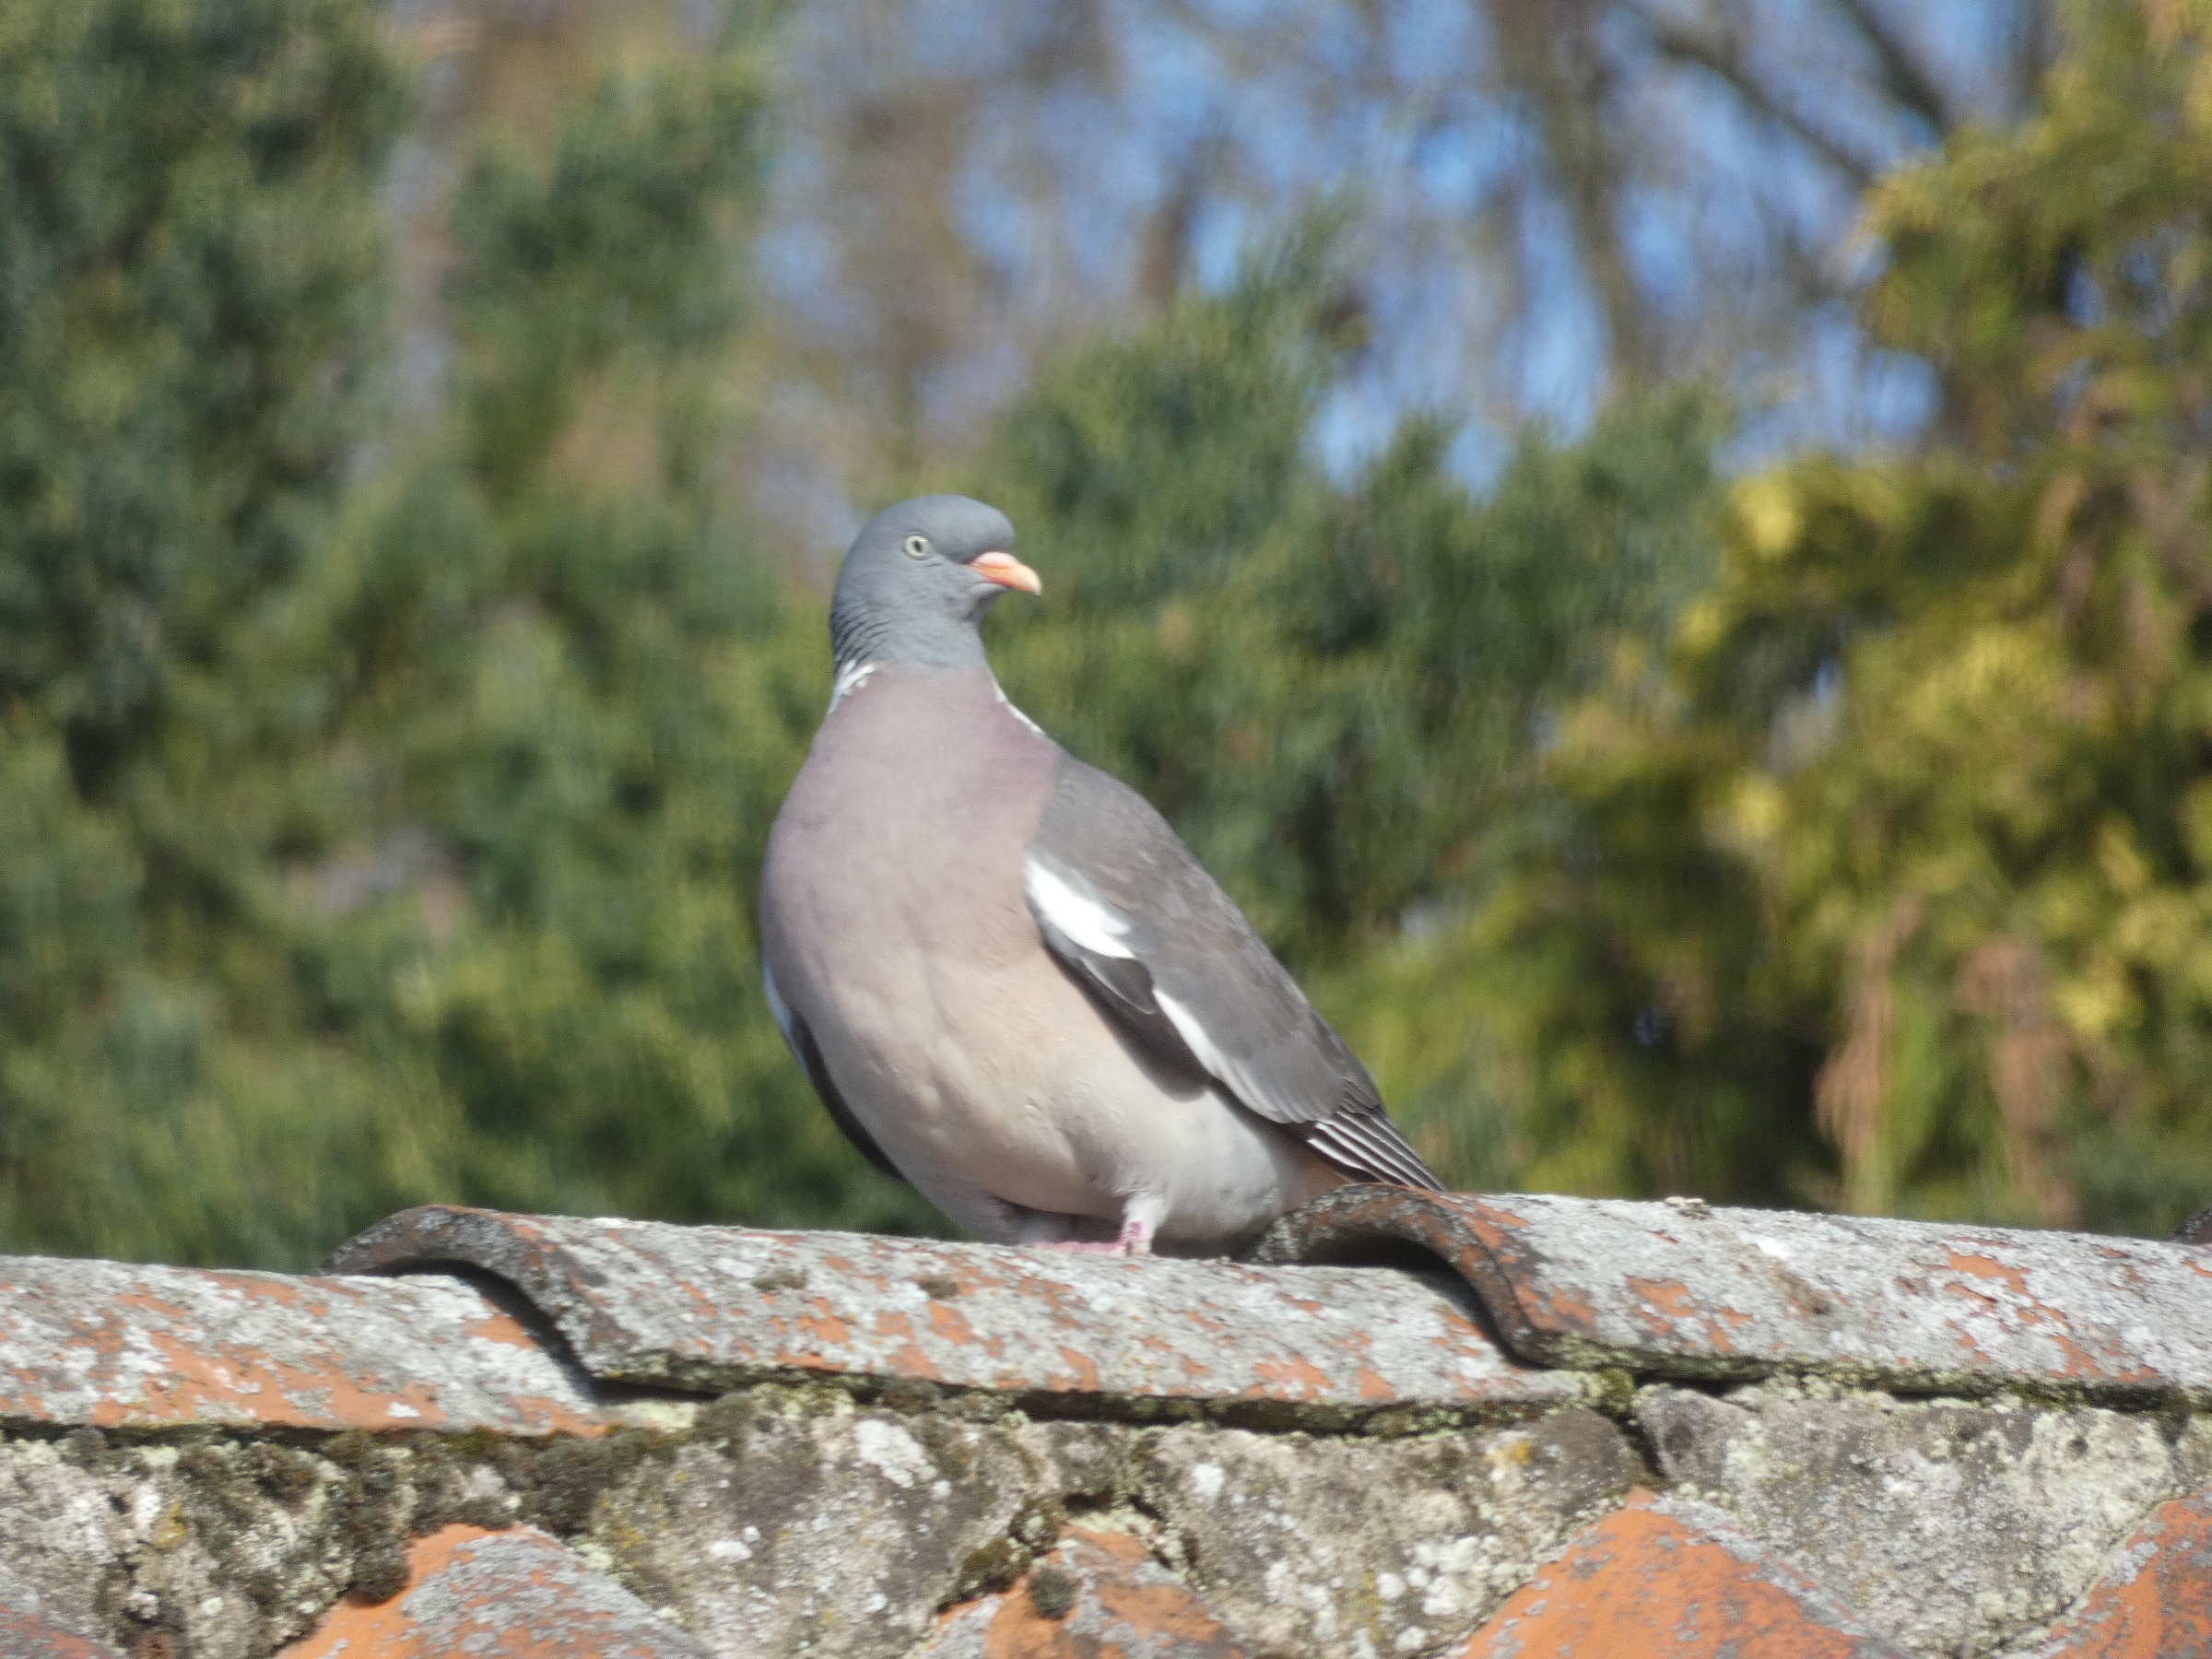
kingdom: Animalia
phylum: Chordata
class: Aves
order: Columbiformes
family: Columbidae
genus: Columba
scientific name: Columba palumbus
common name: Ringdue
